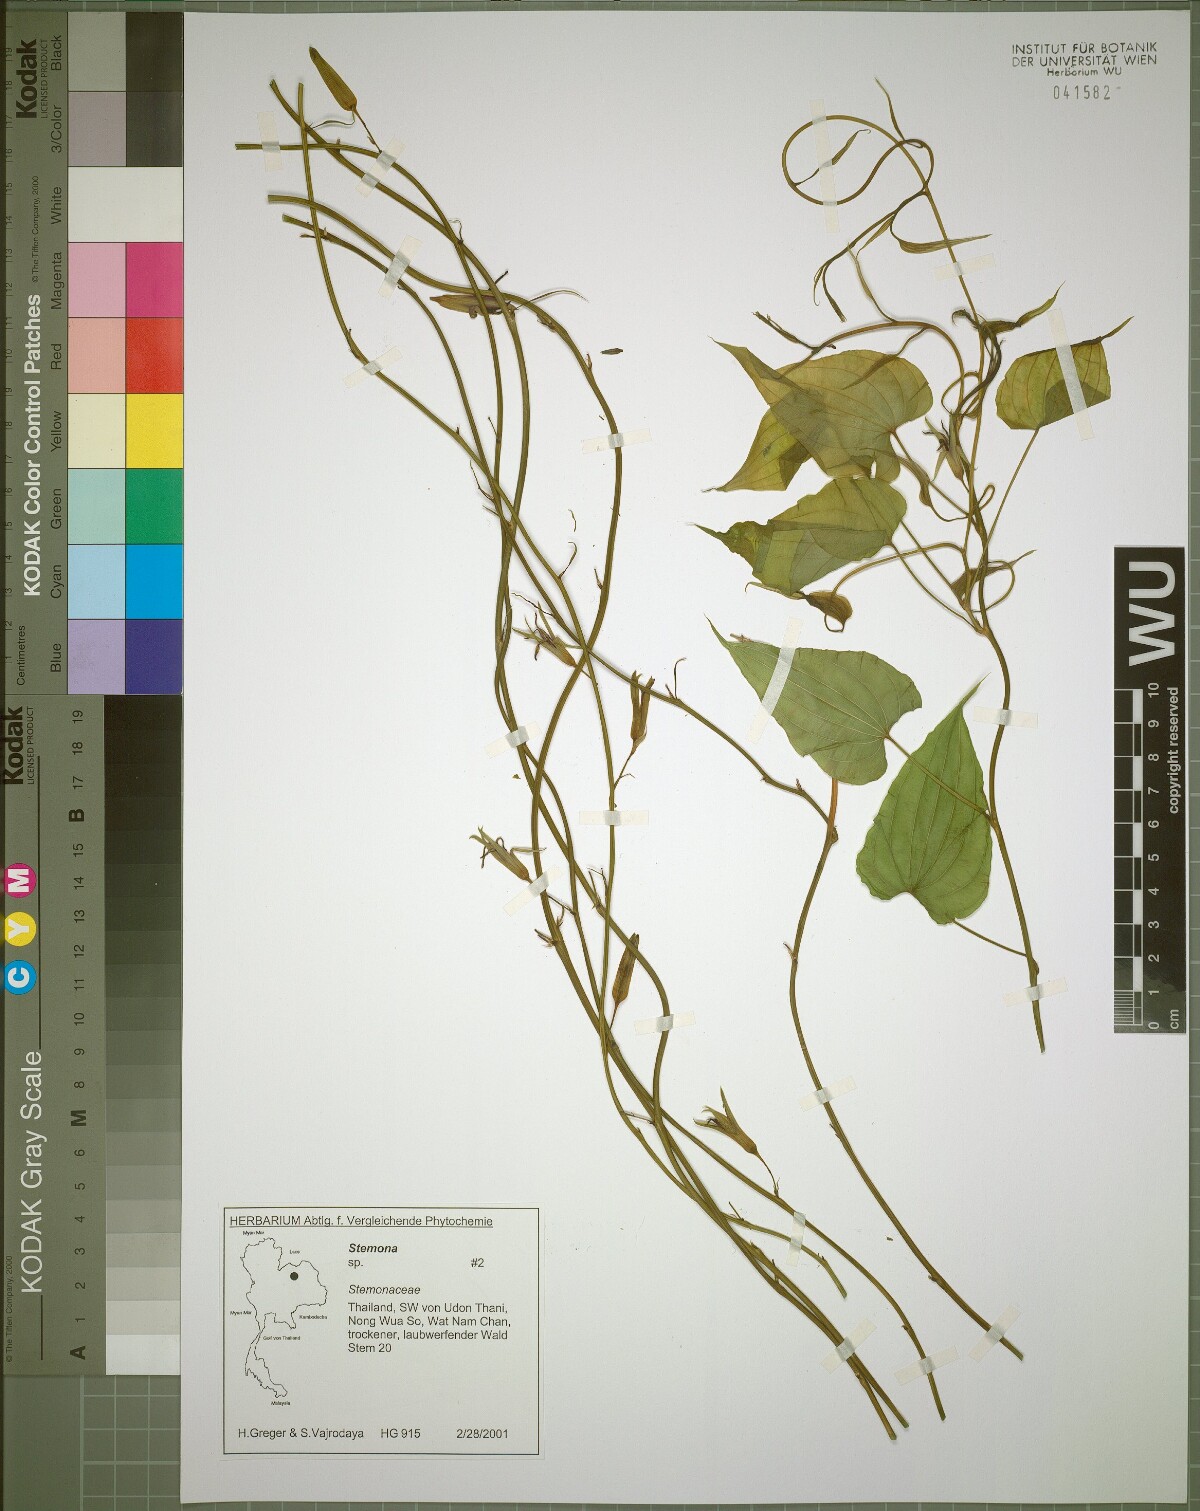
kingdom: Plantae
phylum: Tracheophyta
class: Liliopsida
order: Pandanales
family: Stemonaceae
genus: Stemona
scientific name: Stemona aphylla
